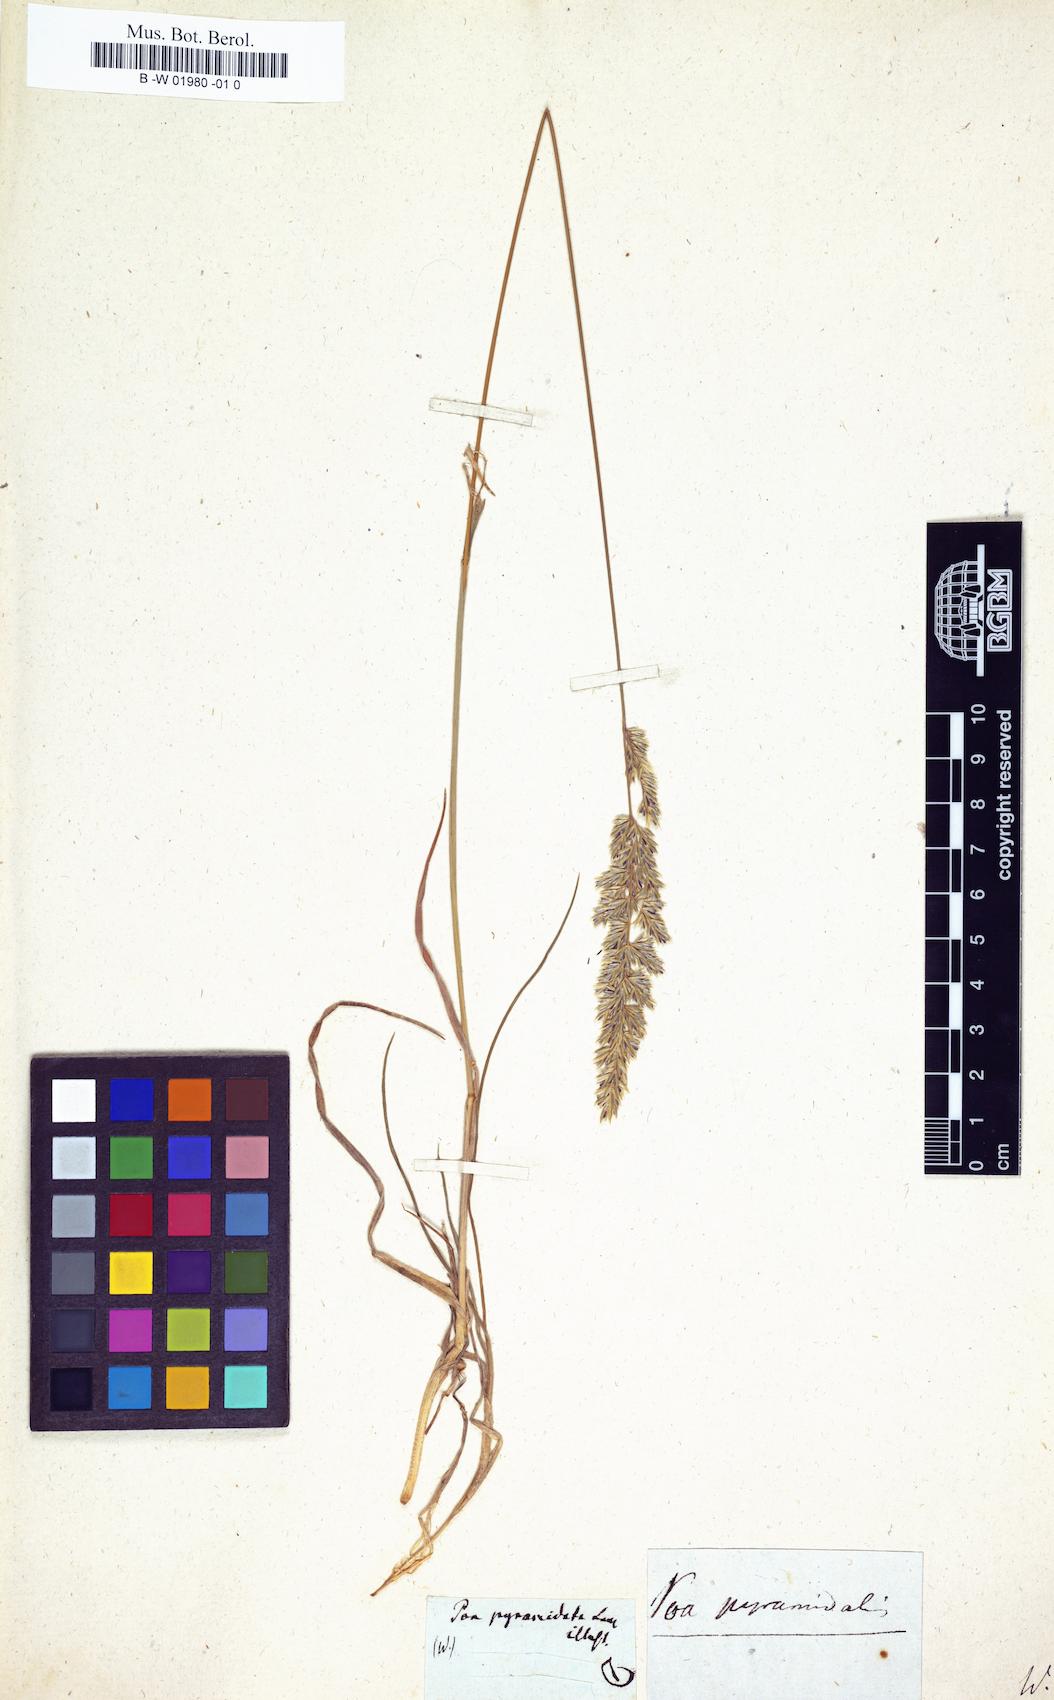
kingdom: Plantae
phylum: Tracheophyta
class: Liliopsida
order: Poales
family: Poaceae
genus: Koeleria
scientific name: Koeleria pyramidata
